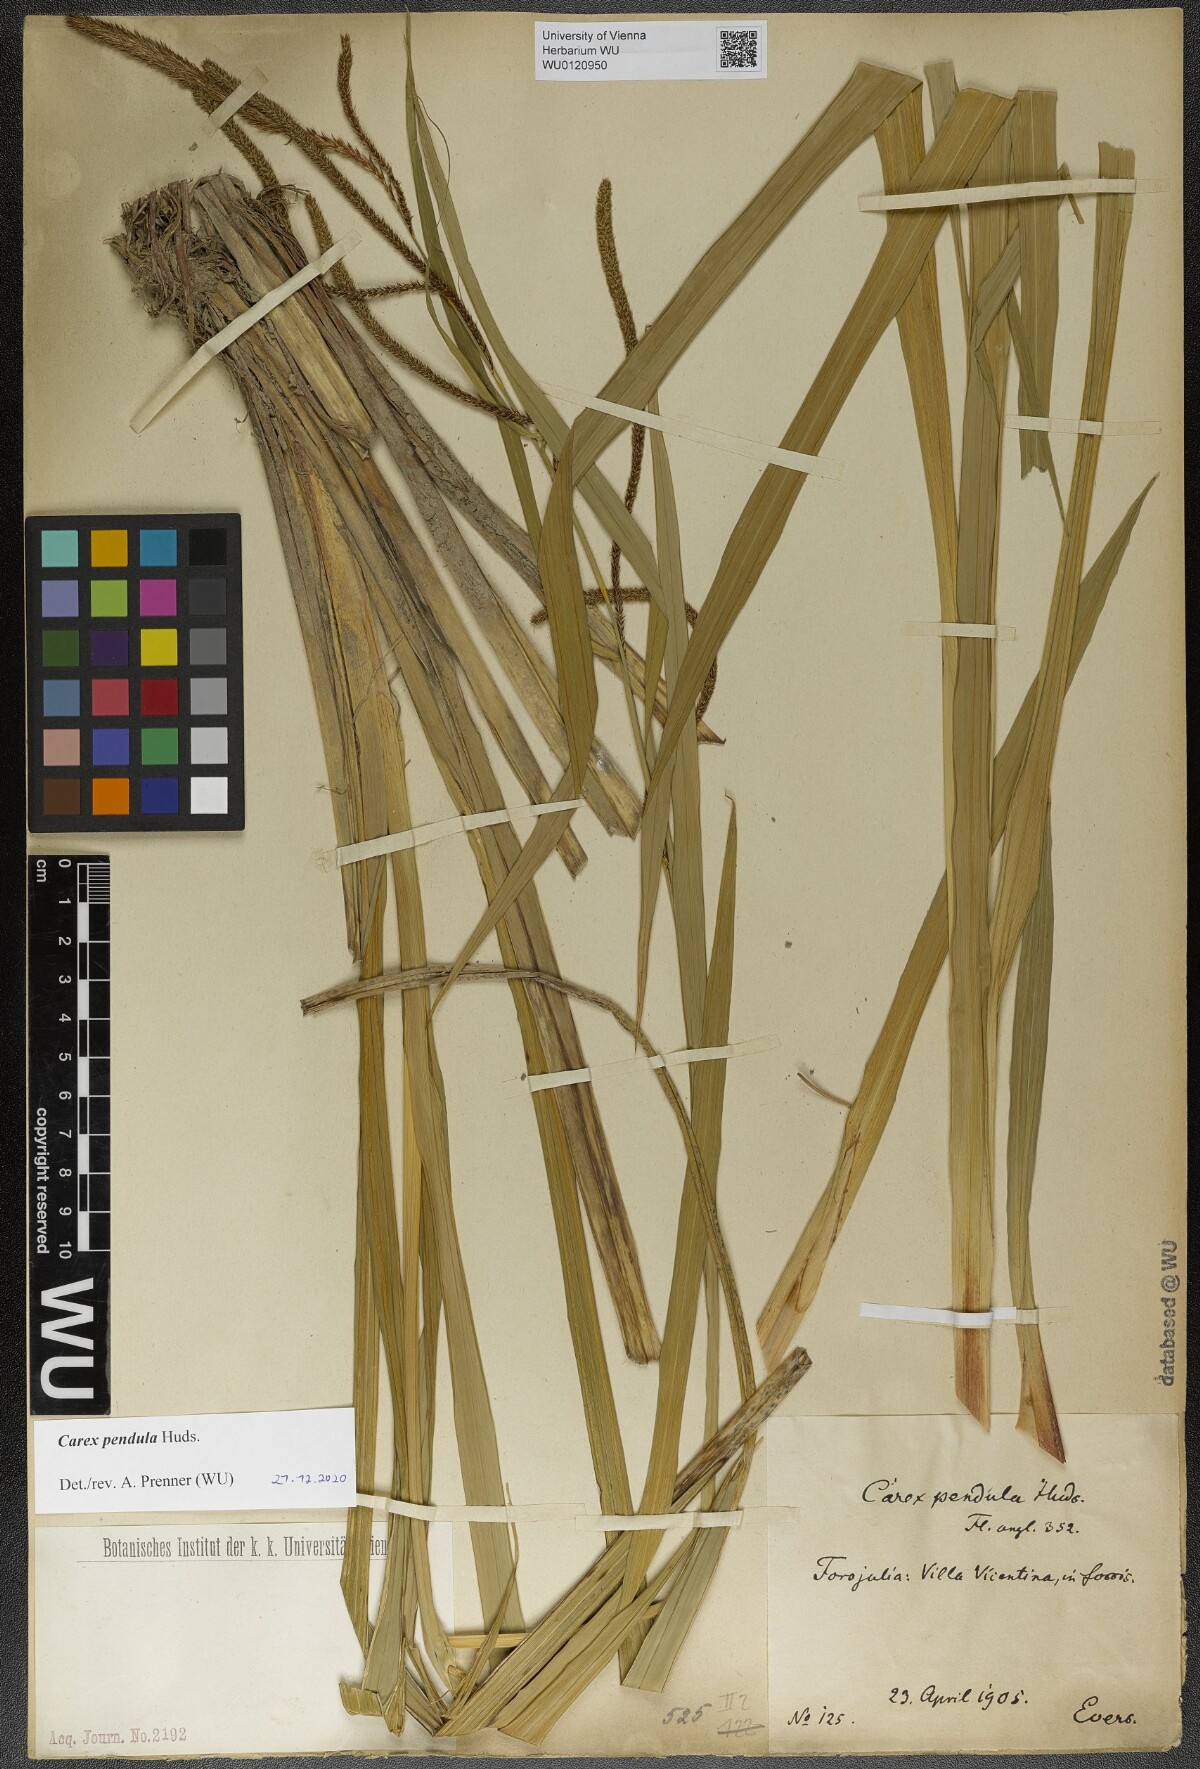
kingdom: Plantae
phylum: Tracheophyta
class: Liliopsida
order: Poales
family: Cyperaceae
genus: Carex
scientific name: Carex pendula
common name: Pendulous sedge
